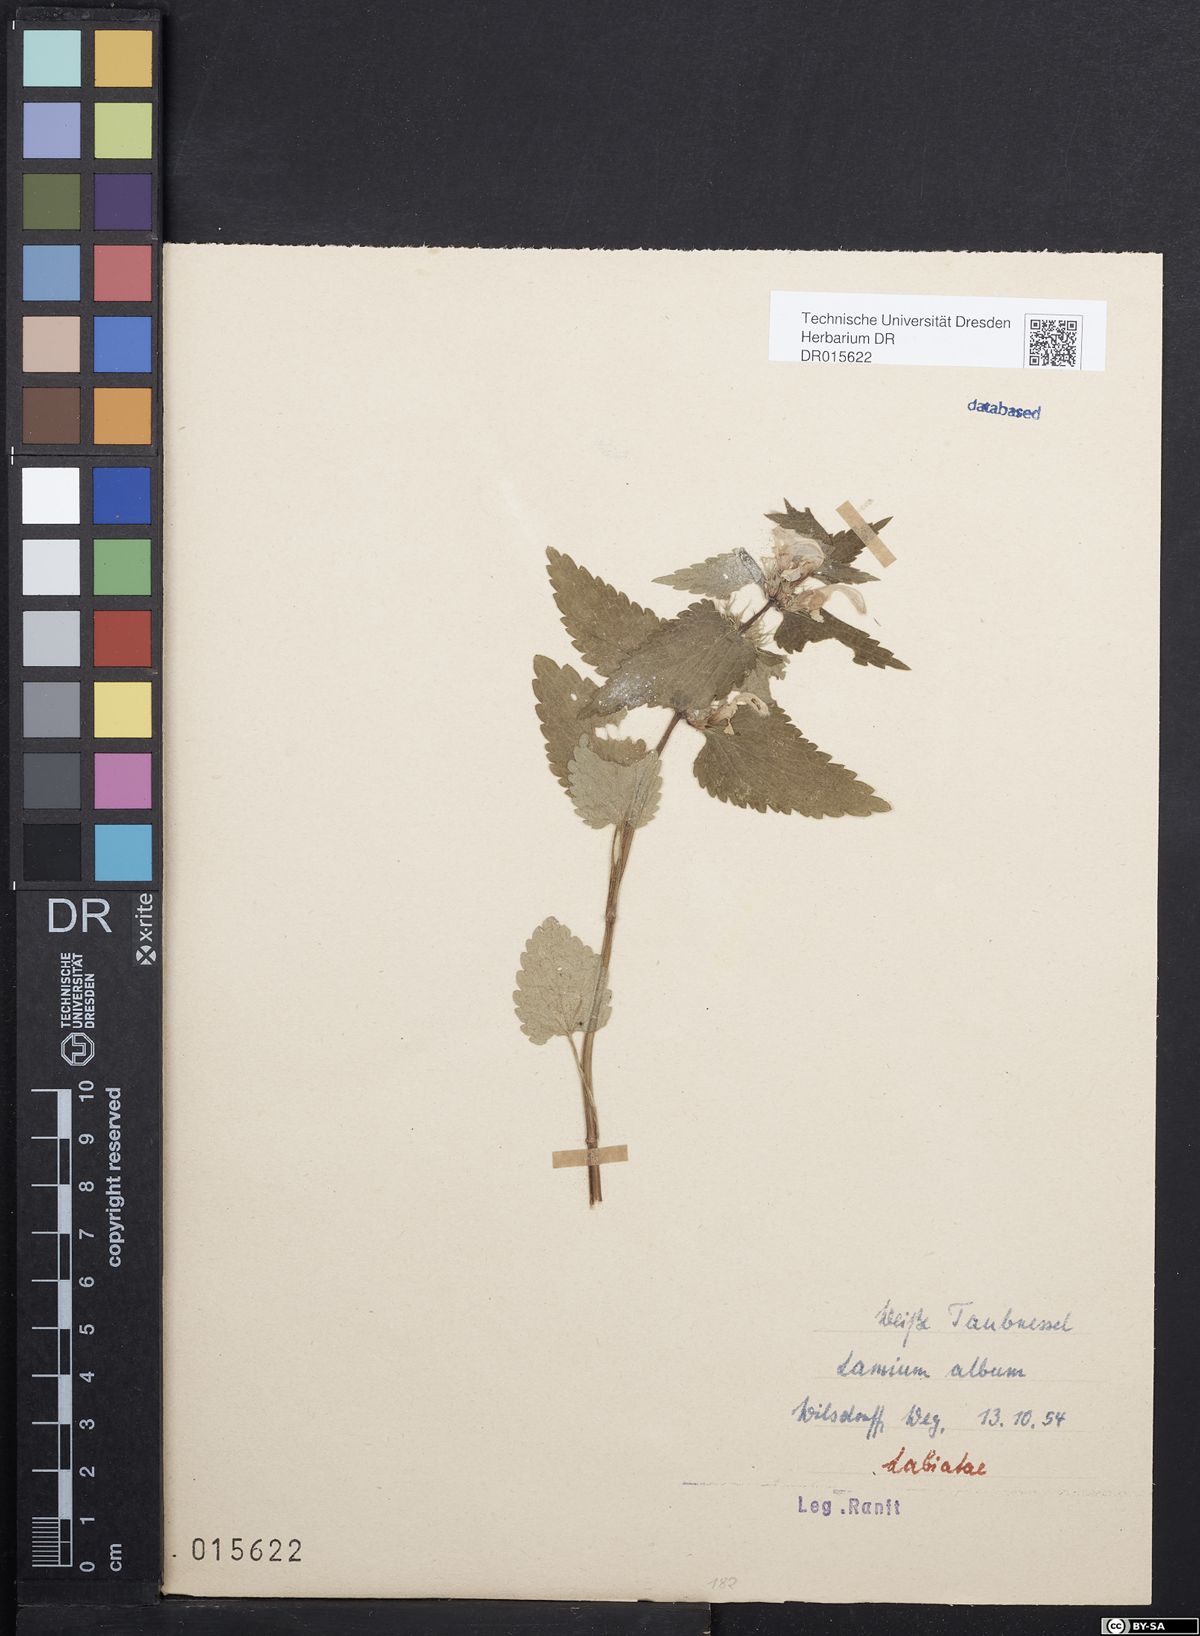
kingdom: Plantae
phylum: Tracheophyta
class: Magnoliopsida
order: Lamiales
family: Lamiaceae
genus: Lamium
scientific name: Lamium album
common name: White dead-nettle
